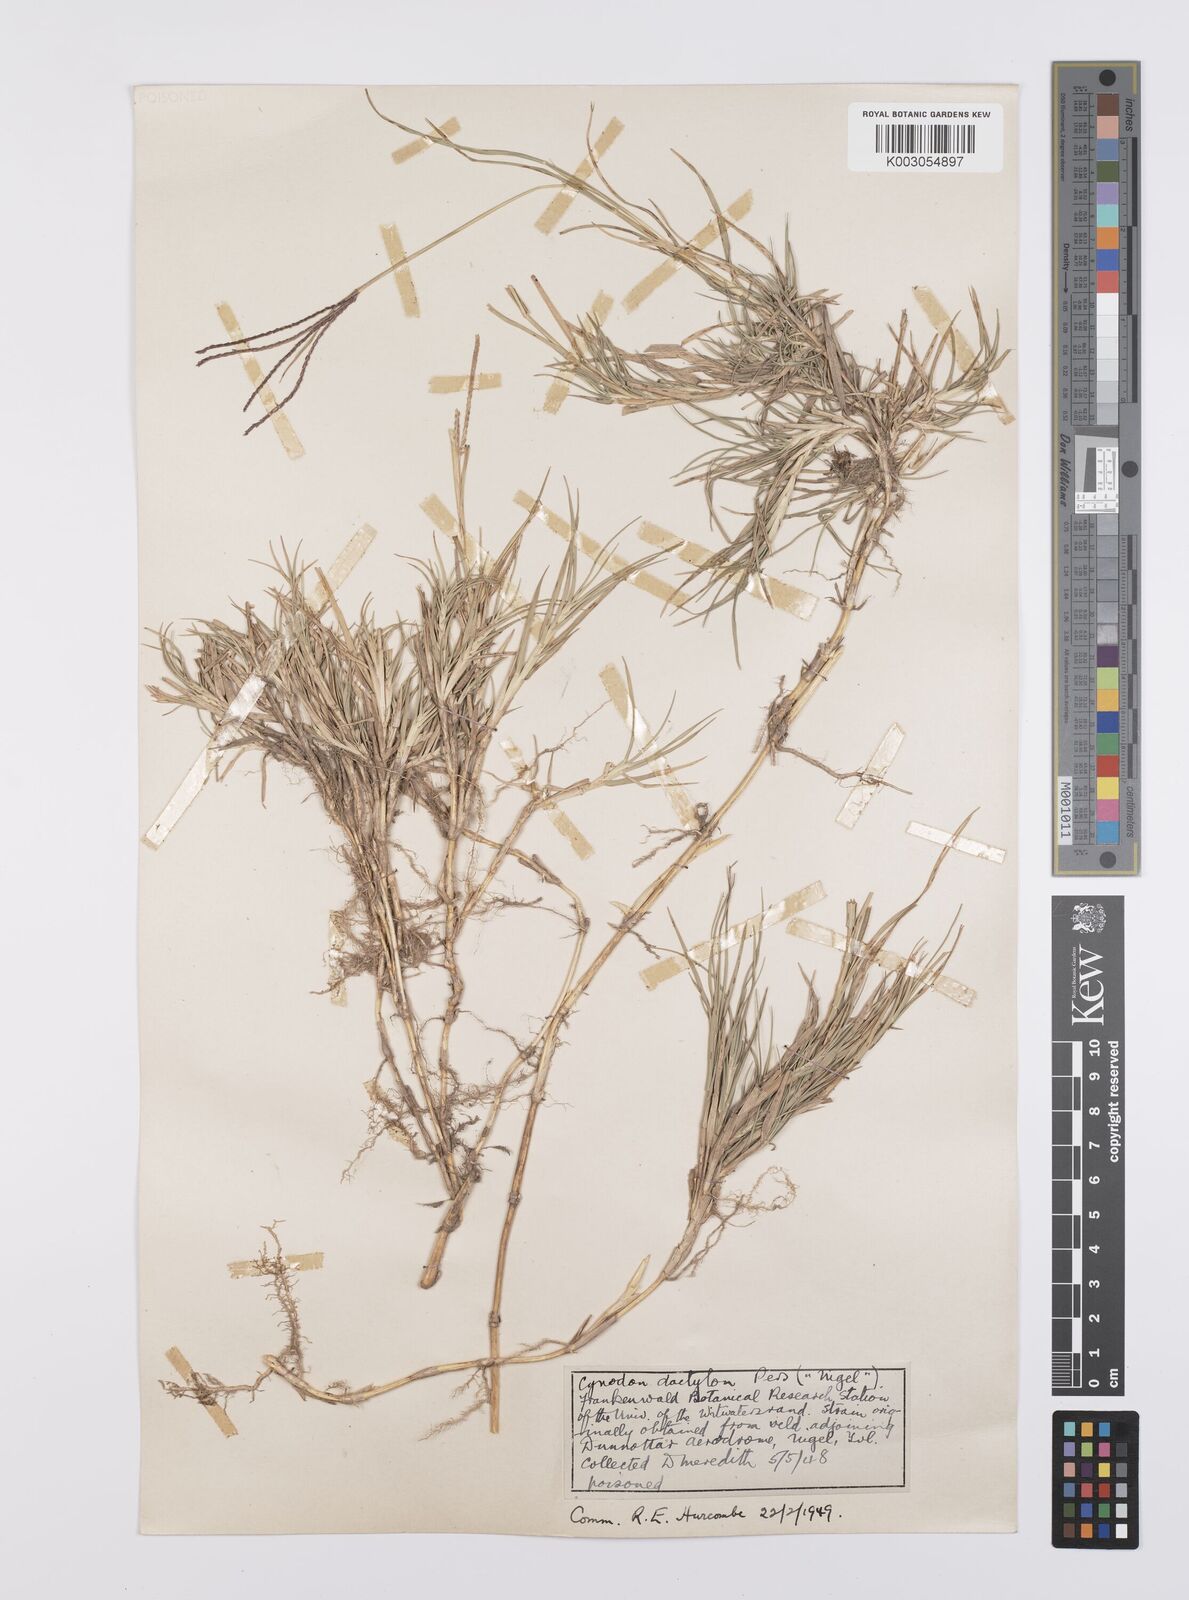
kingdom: Plantae
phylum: Tracheophyta
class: Liliopsida
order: Poales
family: Poaceae
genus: Cynodon
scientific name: Cynodon dactylon
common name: Bermuda grass
